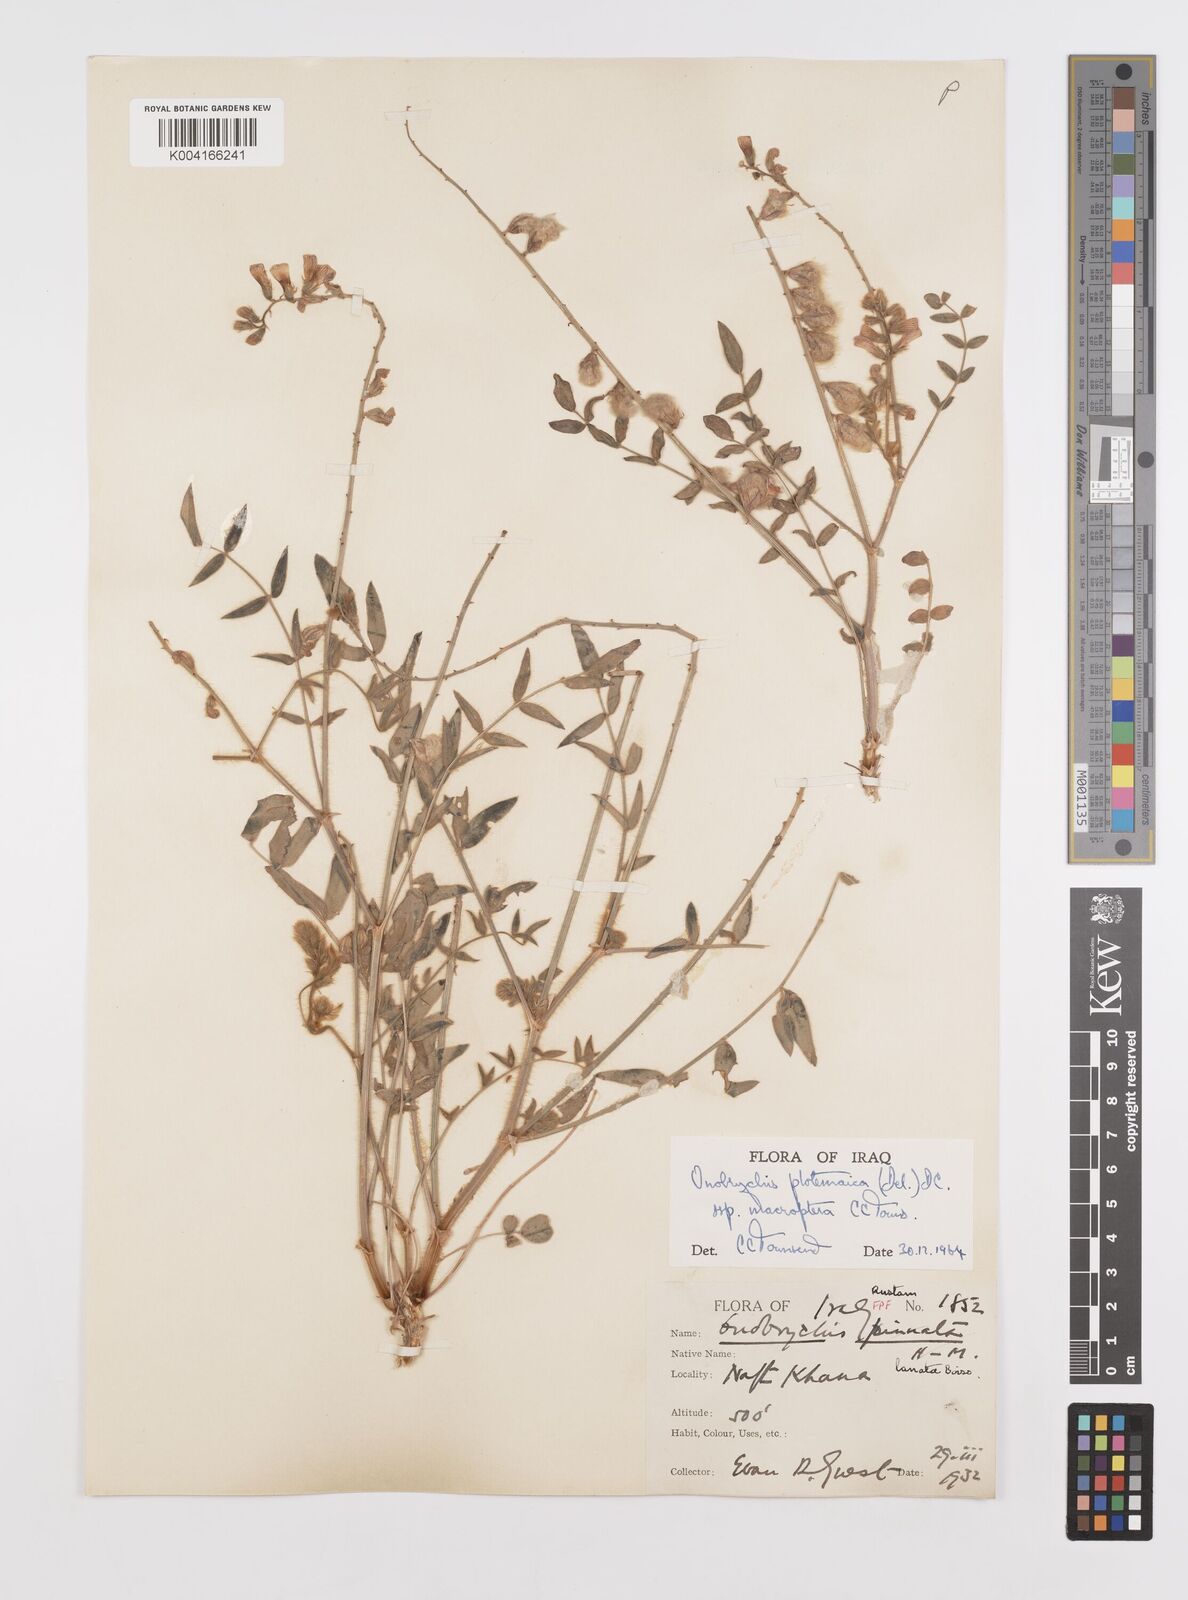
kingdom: Plantae
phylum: Tracheophyta
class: Magnoliopsida
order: Fabales
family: Fabaceae
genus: Onobrychis
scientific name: Onobrychis ptolemaica
